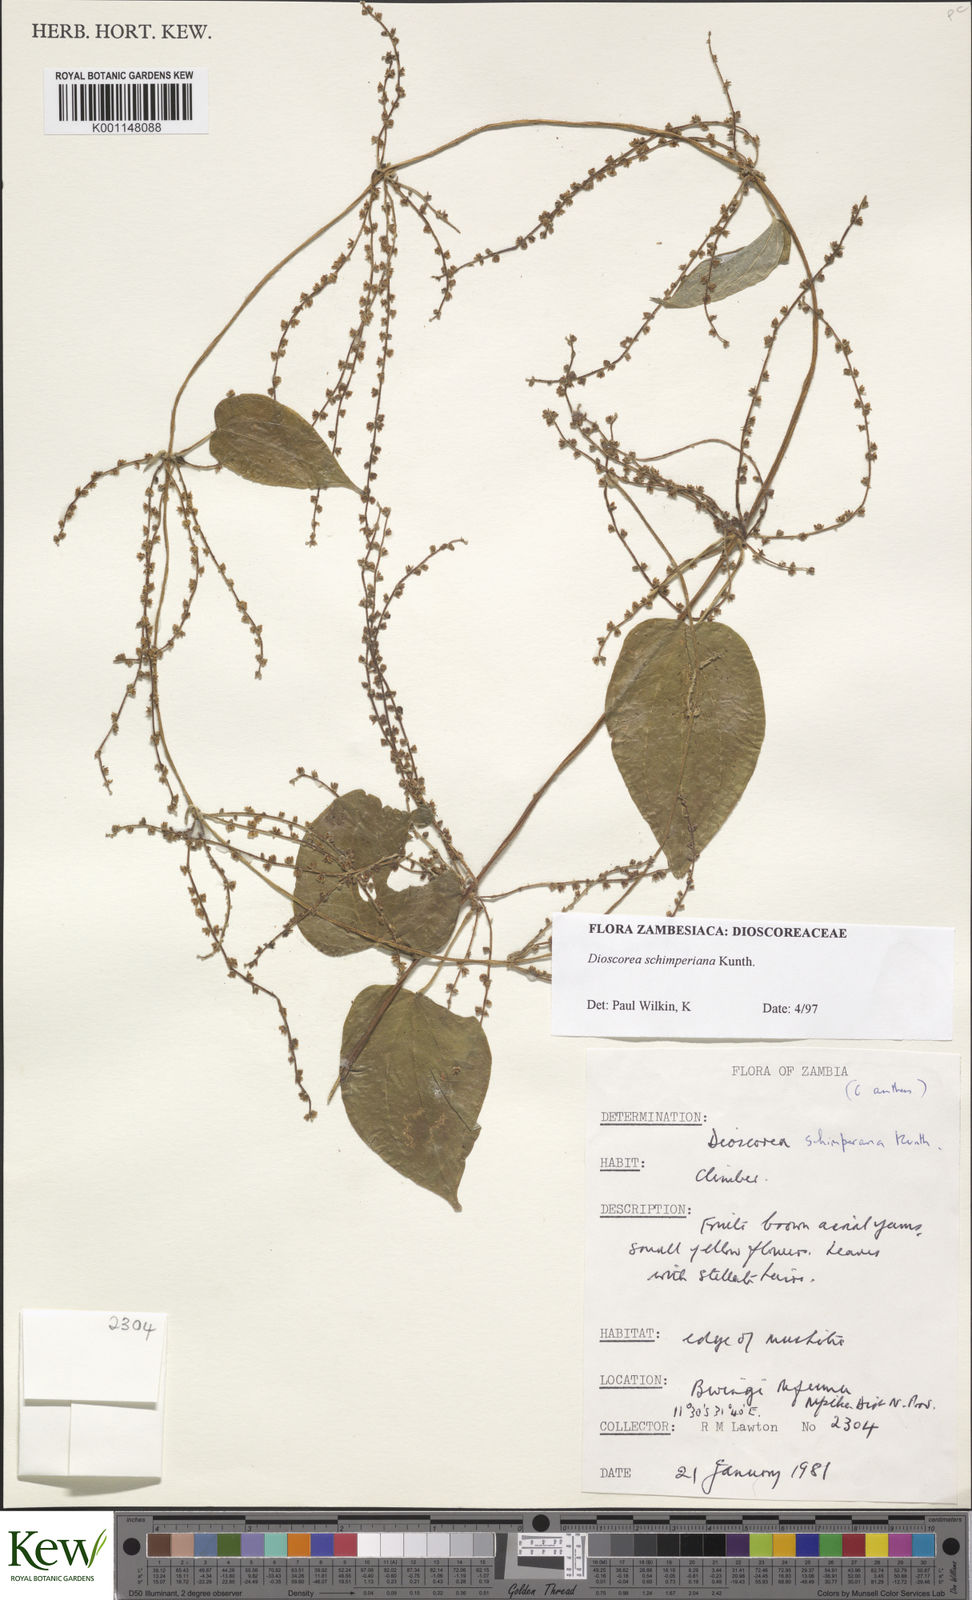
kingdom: Plantae
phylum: Tracheophyta
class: Liliopsida
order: Dioscoreales
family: Dioscoreaceae
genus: Dioscorea
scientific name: Dioscorea schimperiana
